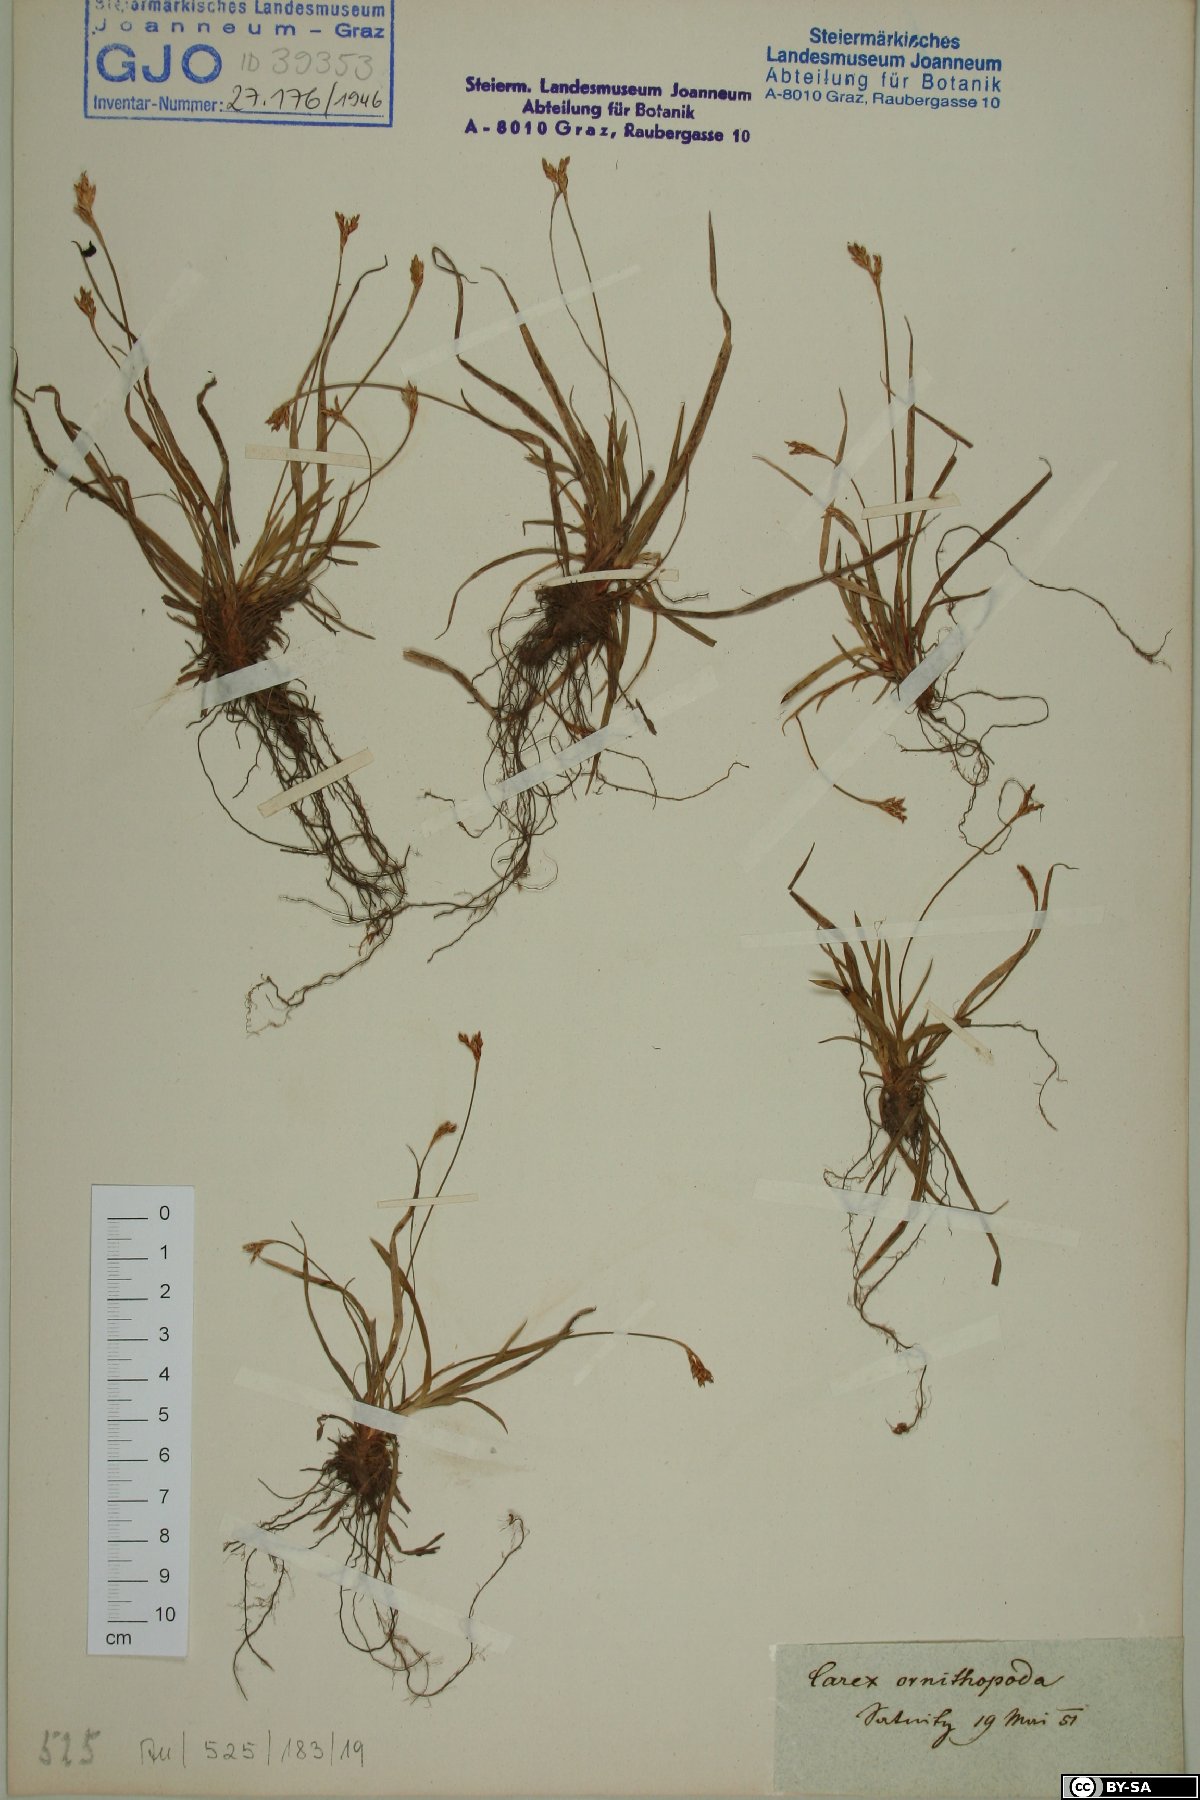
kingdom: Plantae
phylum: Tracheophyta
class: Liliopsida
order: Poales
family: Cyperaceae
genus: Carex
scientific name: Carex ornithopoda
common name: Bird's-foot sedge
